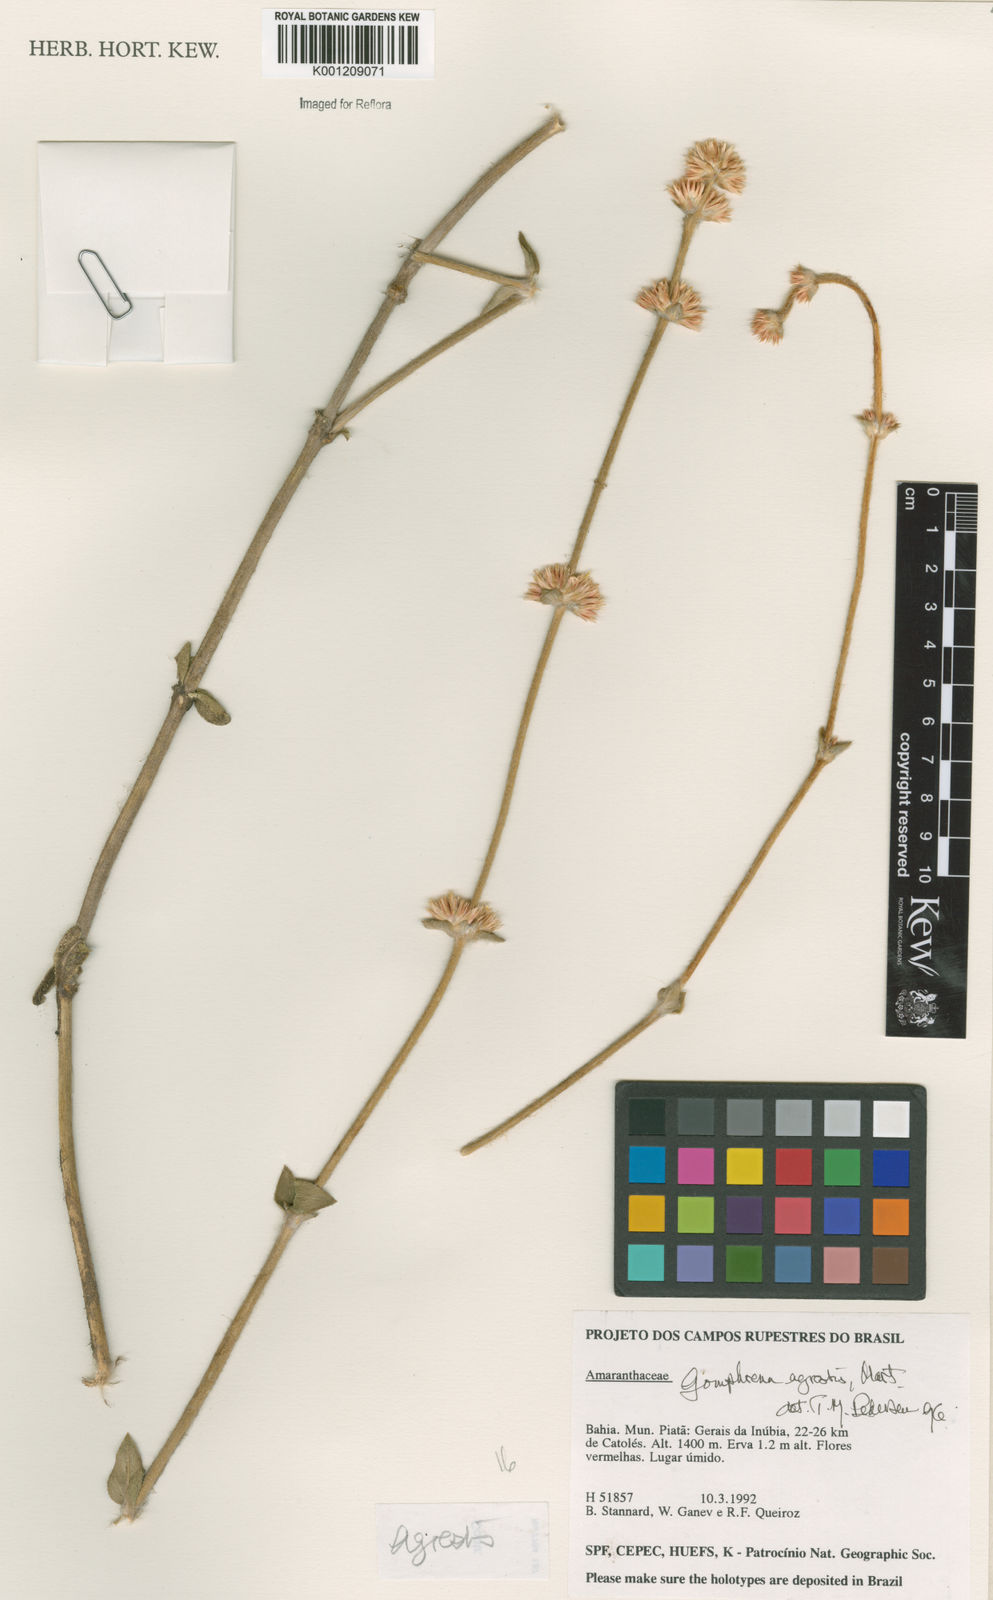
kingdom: Plantae
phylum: Tracheophyta
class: Magnoliopsida
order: Caryophyllales
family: Amaranthaceae
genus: Gomphrena
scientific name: Gomphrena agrestis
